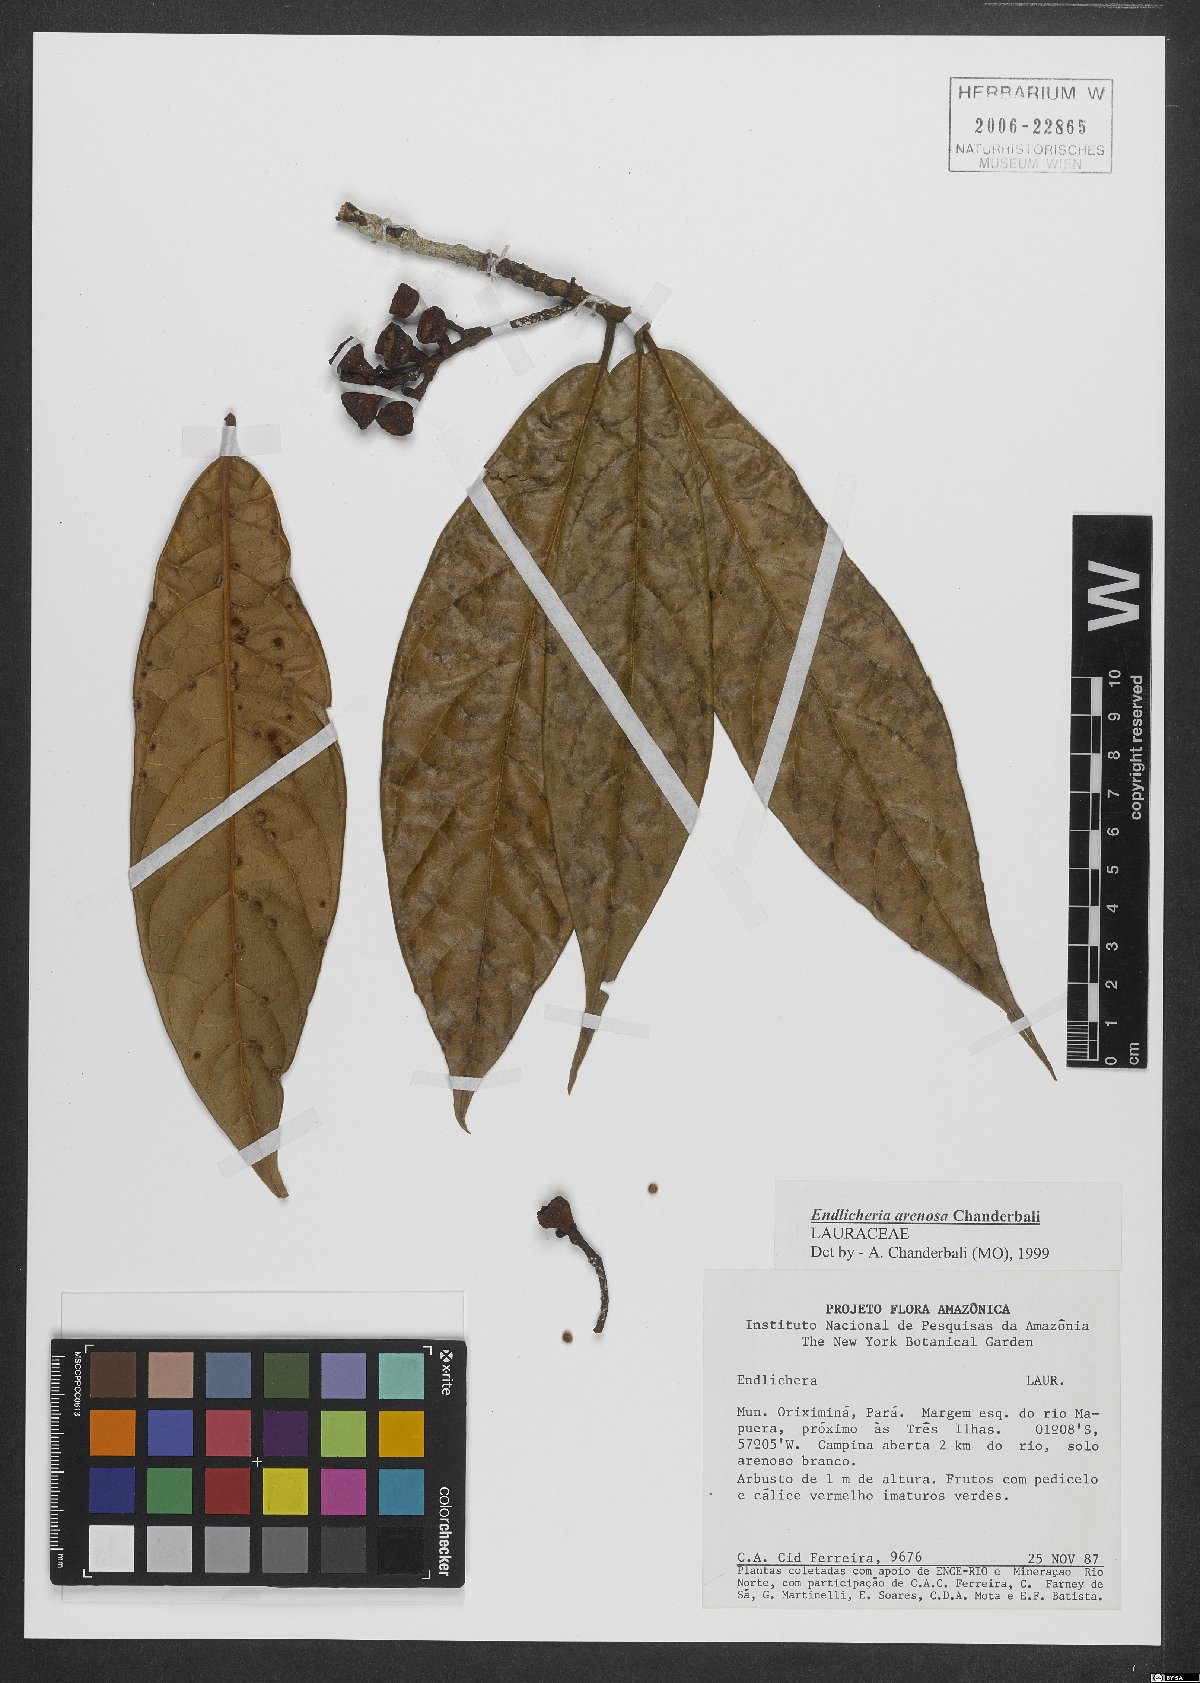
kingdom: Plantae
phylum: Tracheophyta
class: Magnoliopsida
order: Laurales
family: Lauraceae
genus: Endlicheria
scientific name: Endlicheria arenosa
